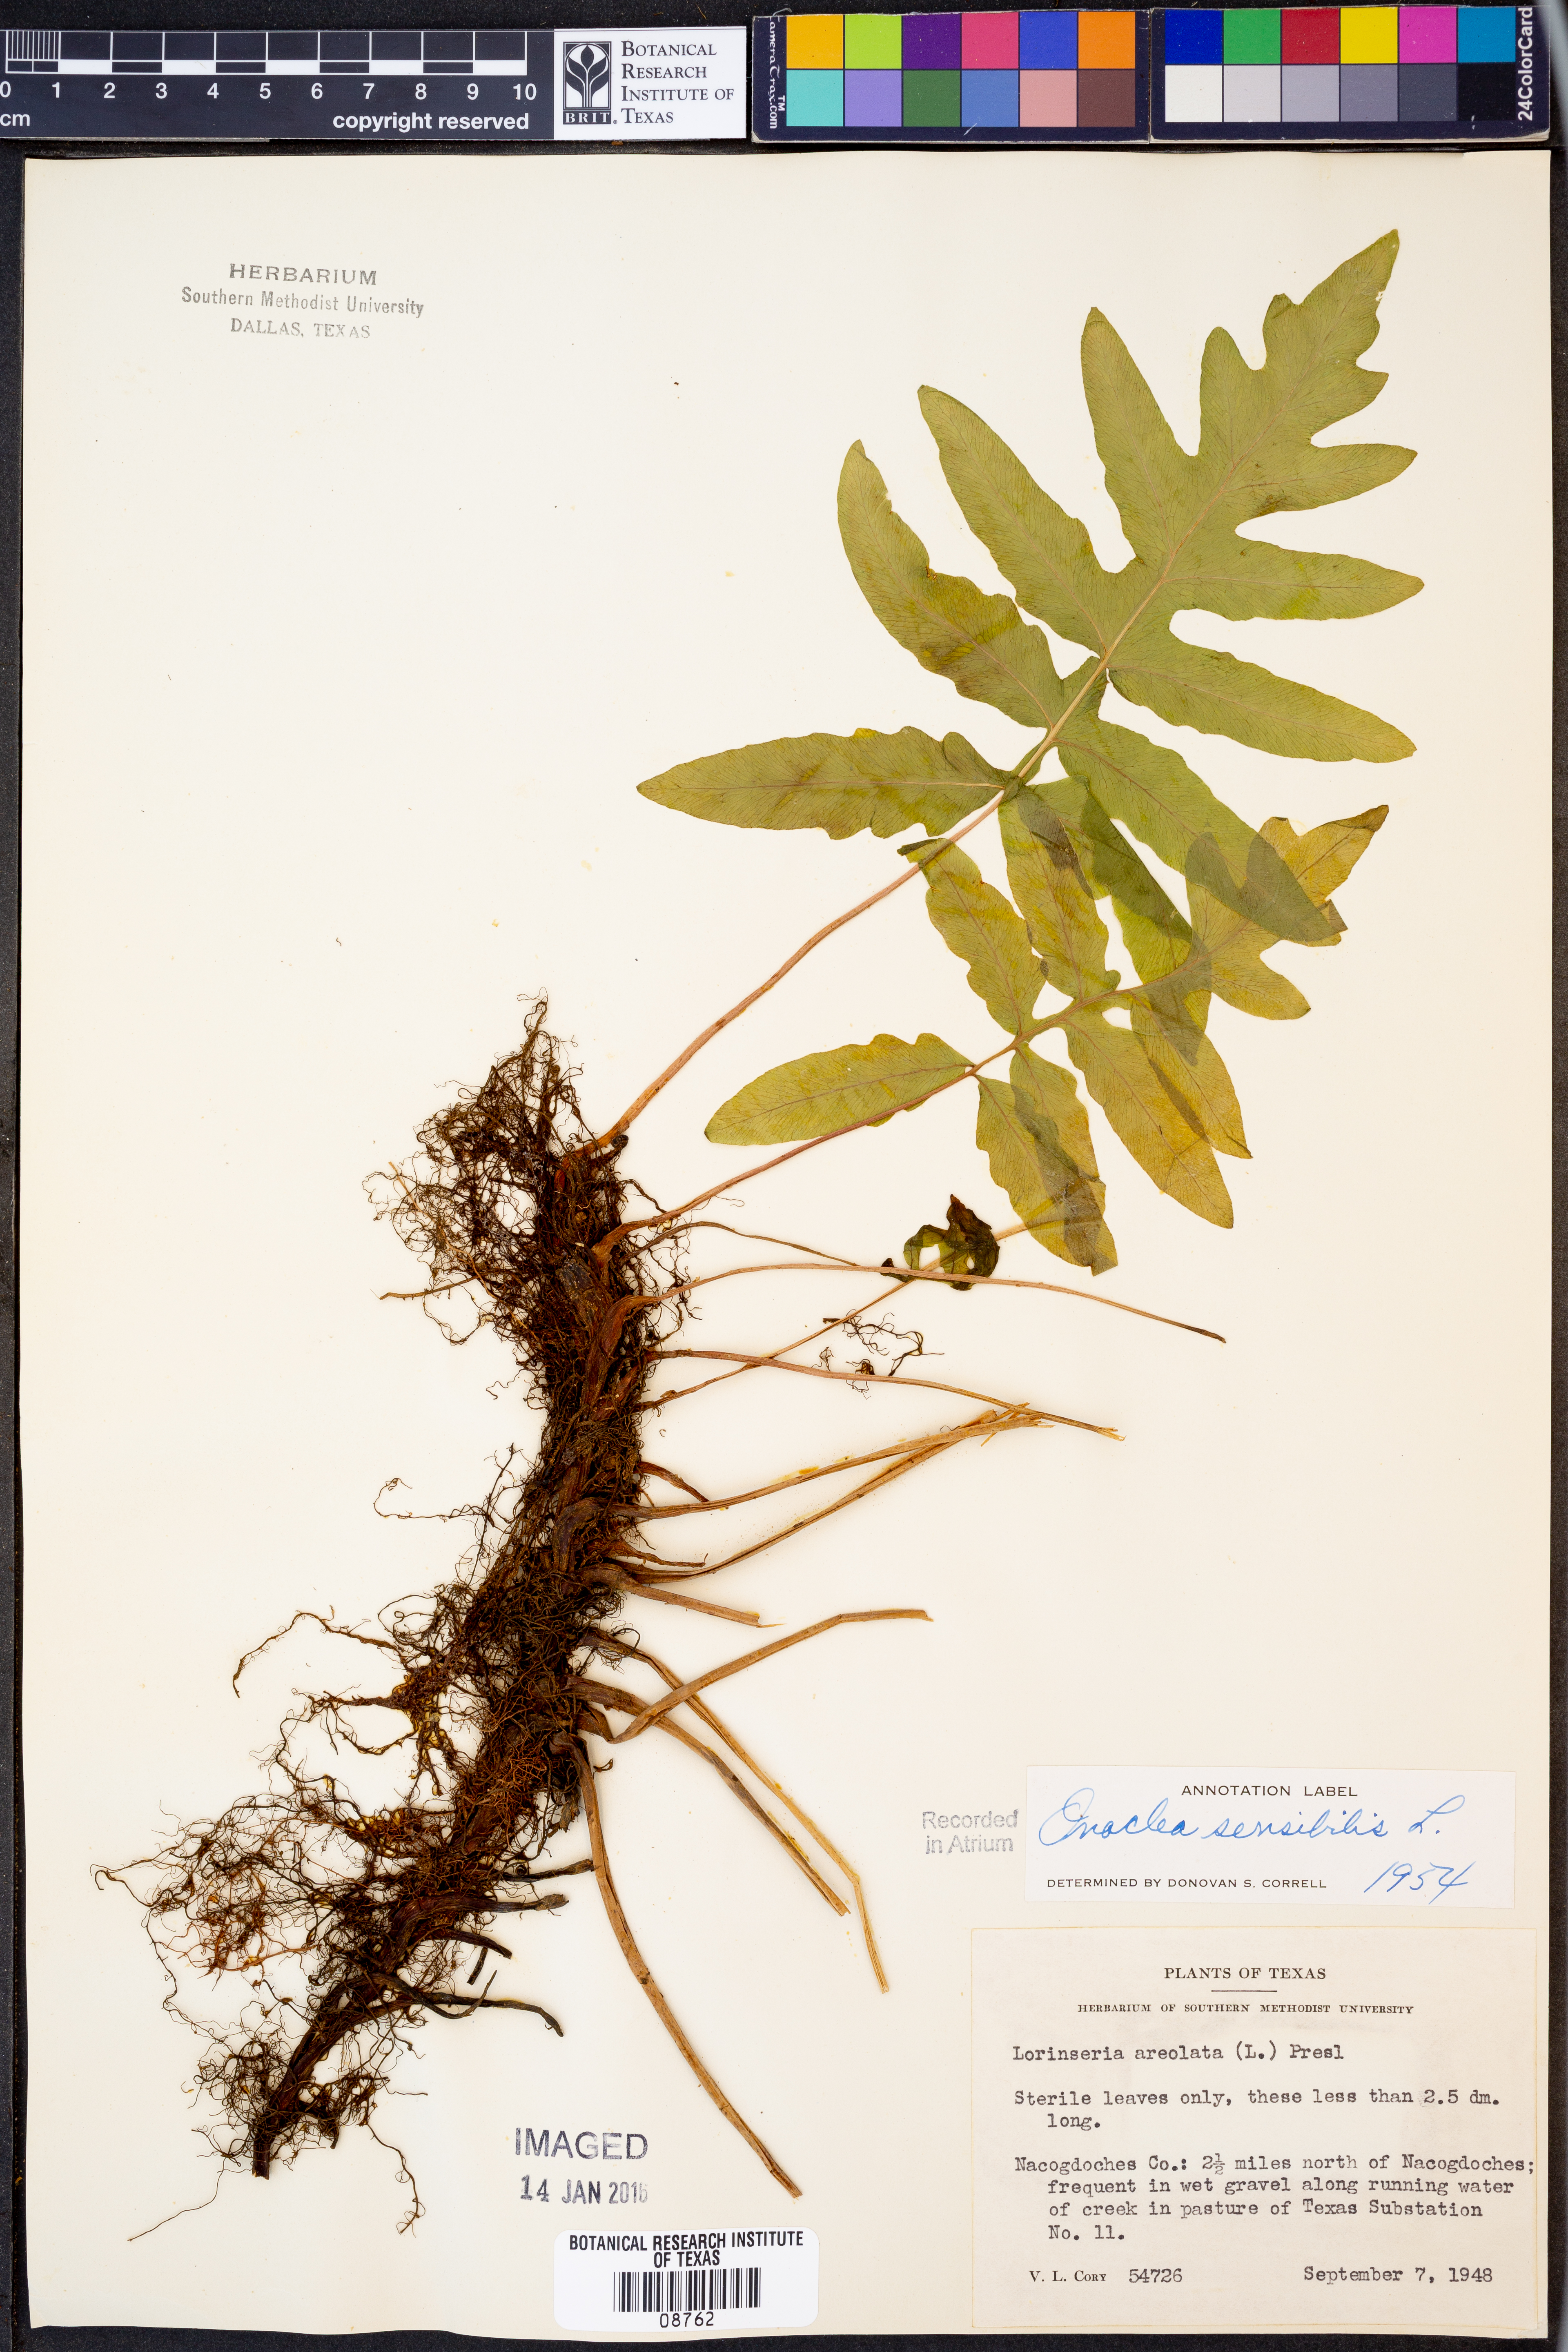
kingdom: Plantae
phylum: Tracheophyta
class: Polypodiopsida
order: Polypodiales
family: Onocleaceae
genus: Onoclea
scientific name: Onoclea sensibilis
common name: Sensitive fern
